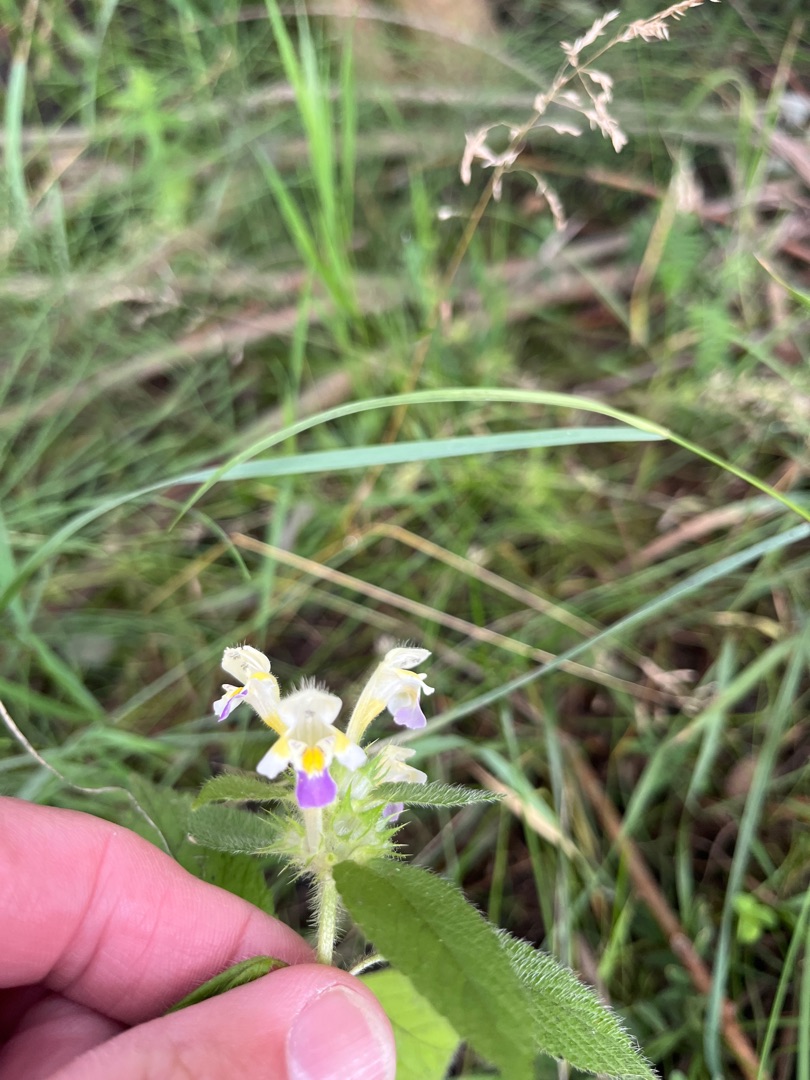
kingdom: Plantae
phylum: Tracheophyta
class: Magnoliopsida
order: Lamiales
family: Lamiaceae
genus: Galeopsis
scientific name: Galeopsis speciosa
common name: Hamp-hanekro
